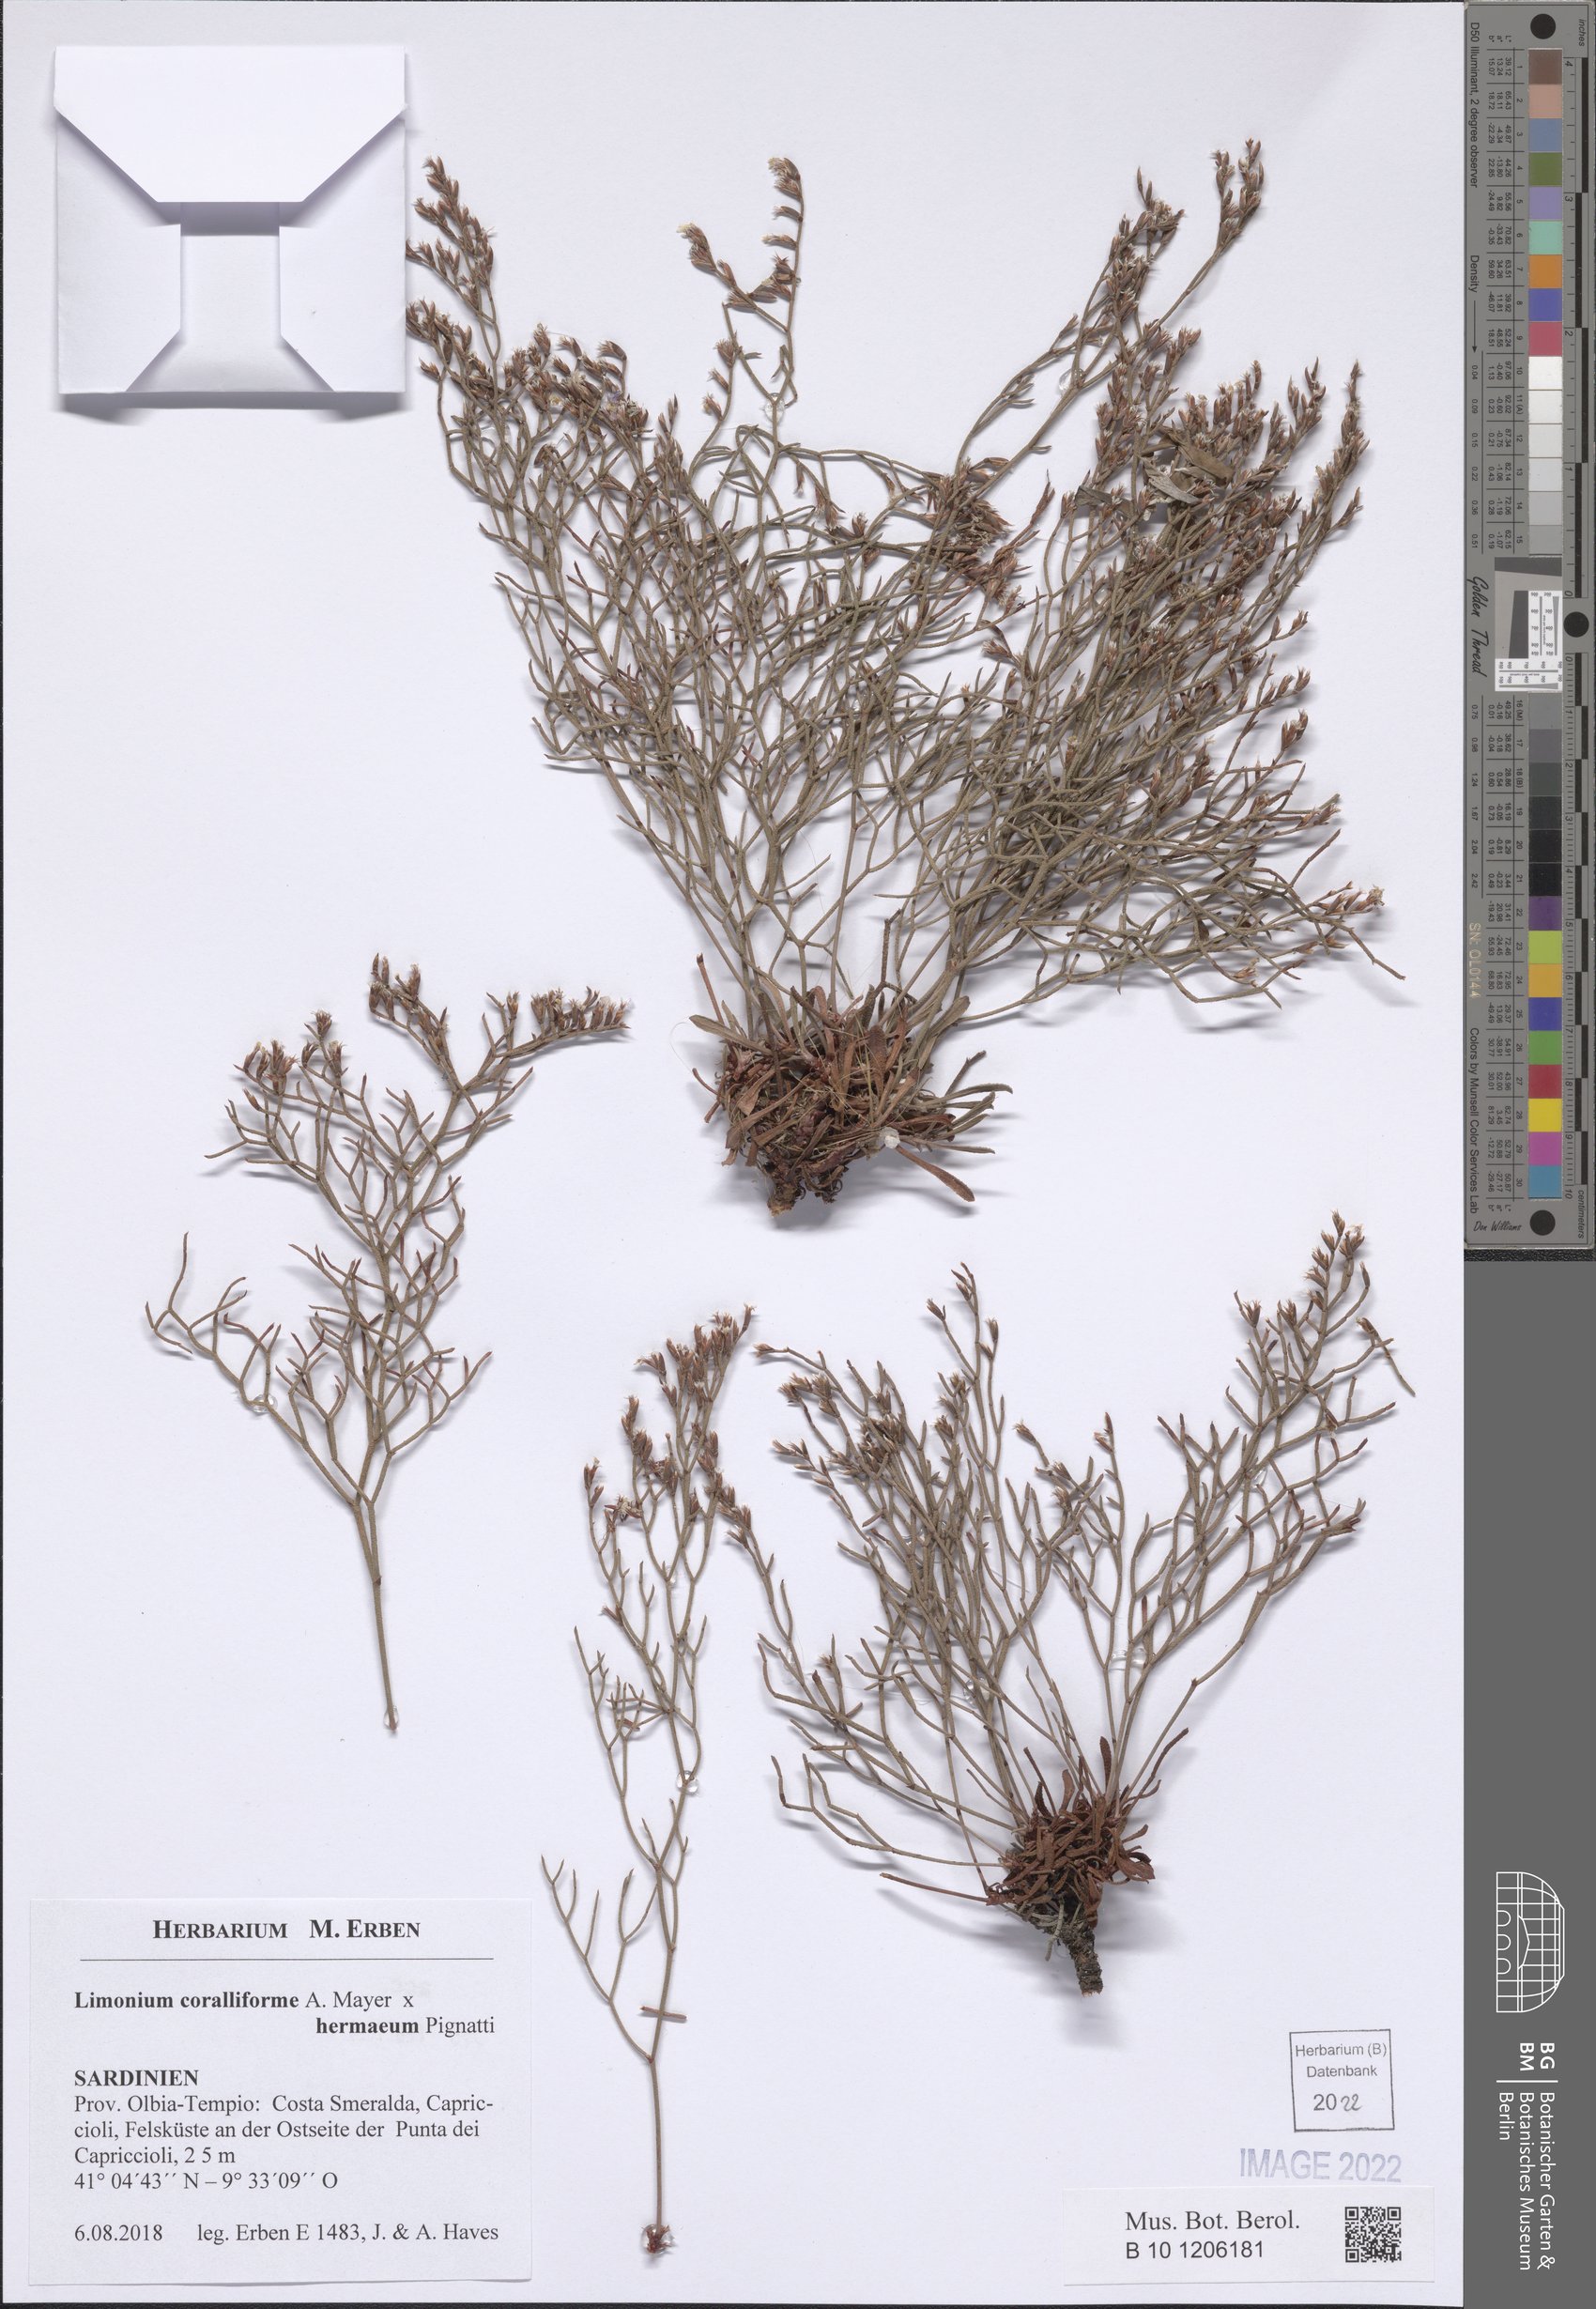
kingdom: Plantae
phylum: Tracheophyta
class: Magnoliopsida
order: Caryophyllales
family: Plumbaginaceae
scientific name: Plumbaginaceae
